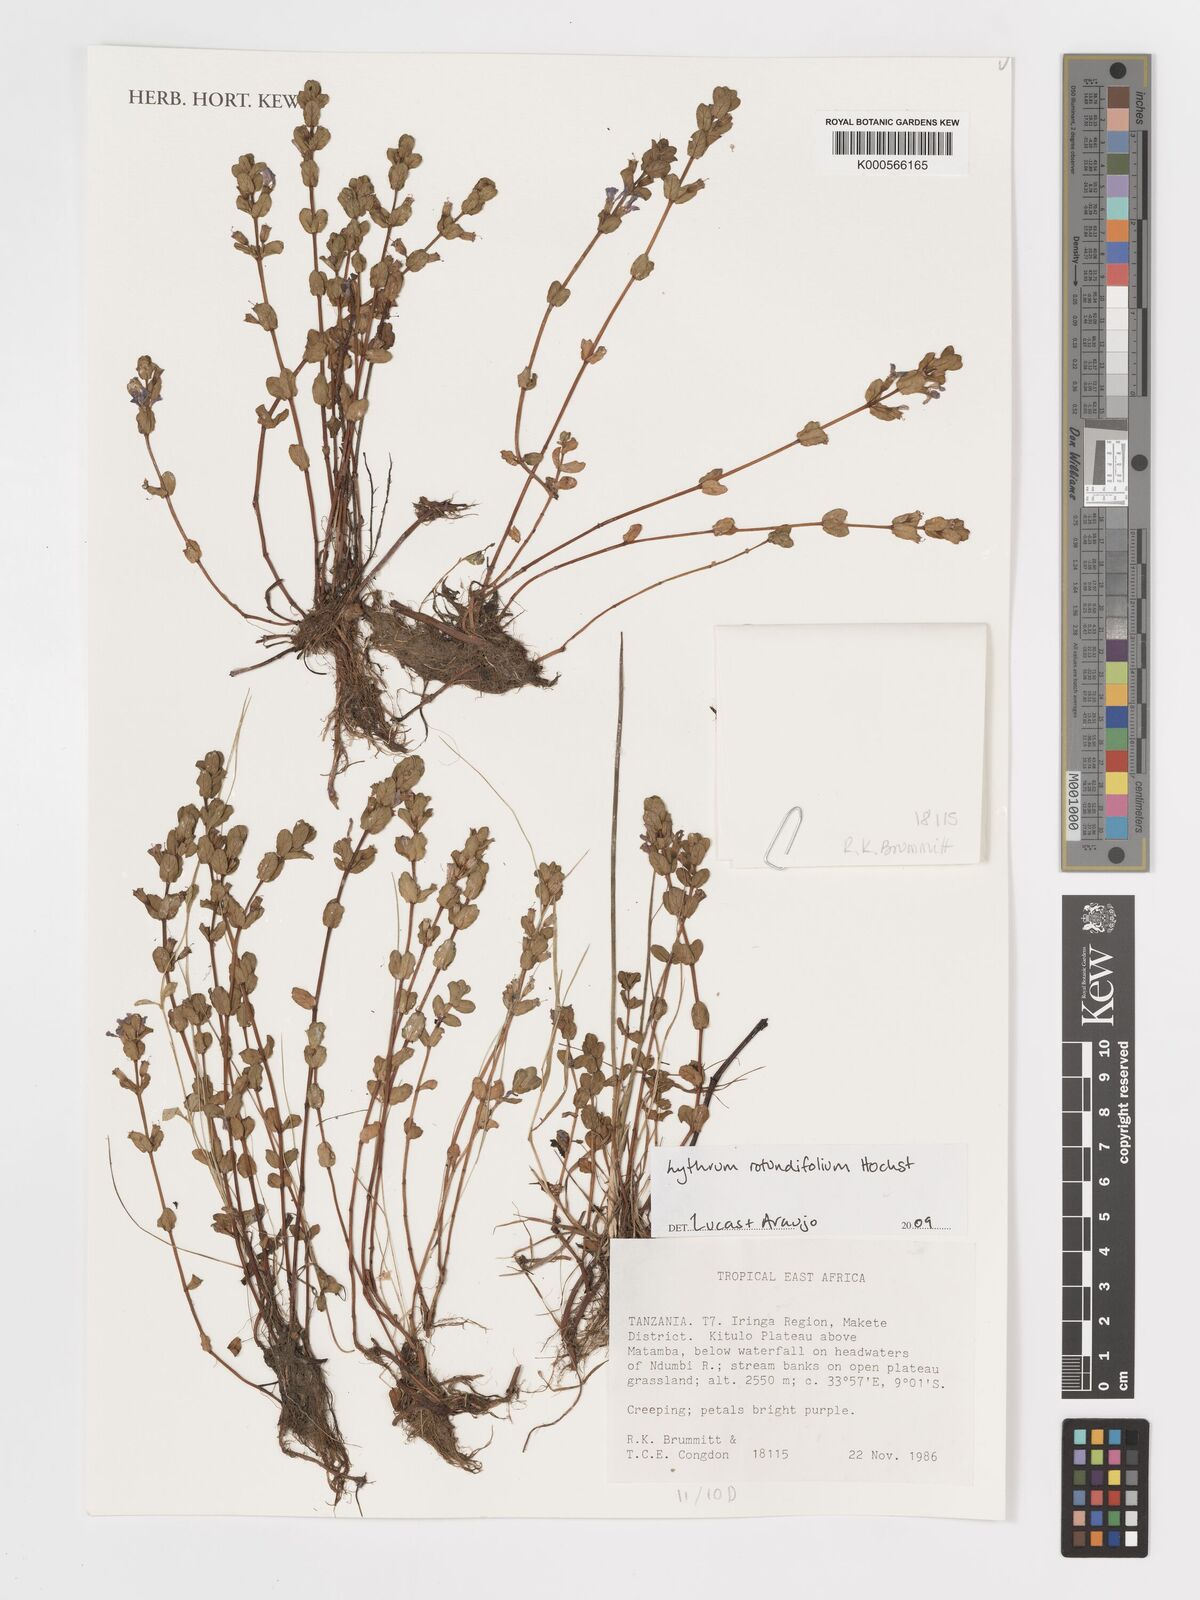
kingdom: Plantae
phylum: Tracheophyta
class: Magnoliopsida
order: Myrtales
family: Lythraceae
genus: Lythrum
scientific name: Lythrum
